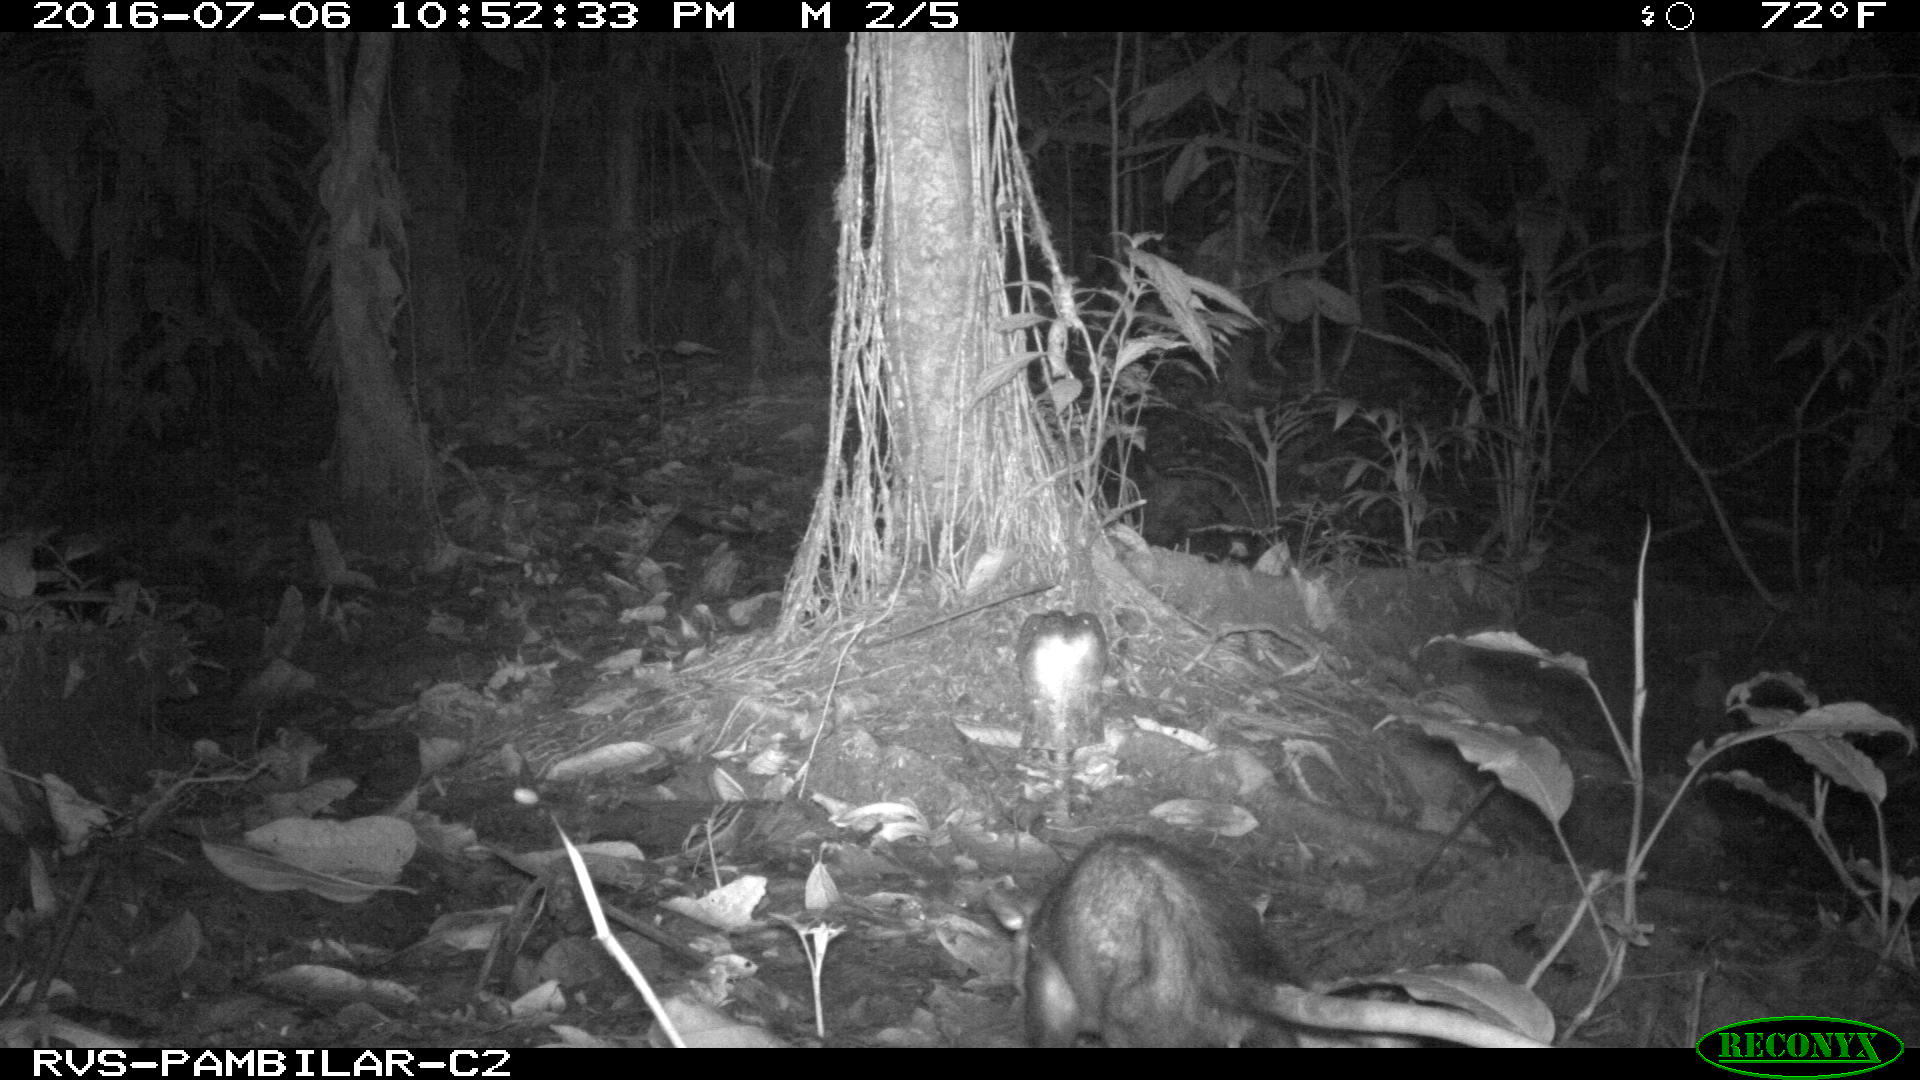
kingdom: Animalia
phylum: Chordata
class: Mammalia
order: Didelphimorphia
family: Didelphidae
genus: Didelphis
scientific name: Didelphis marsupialis
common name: Common opossum
